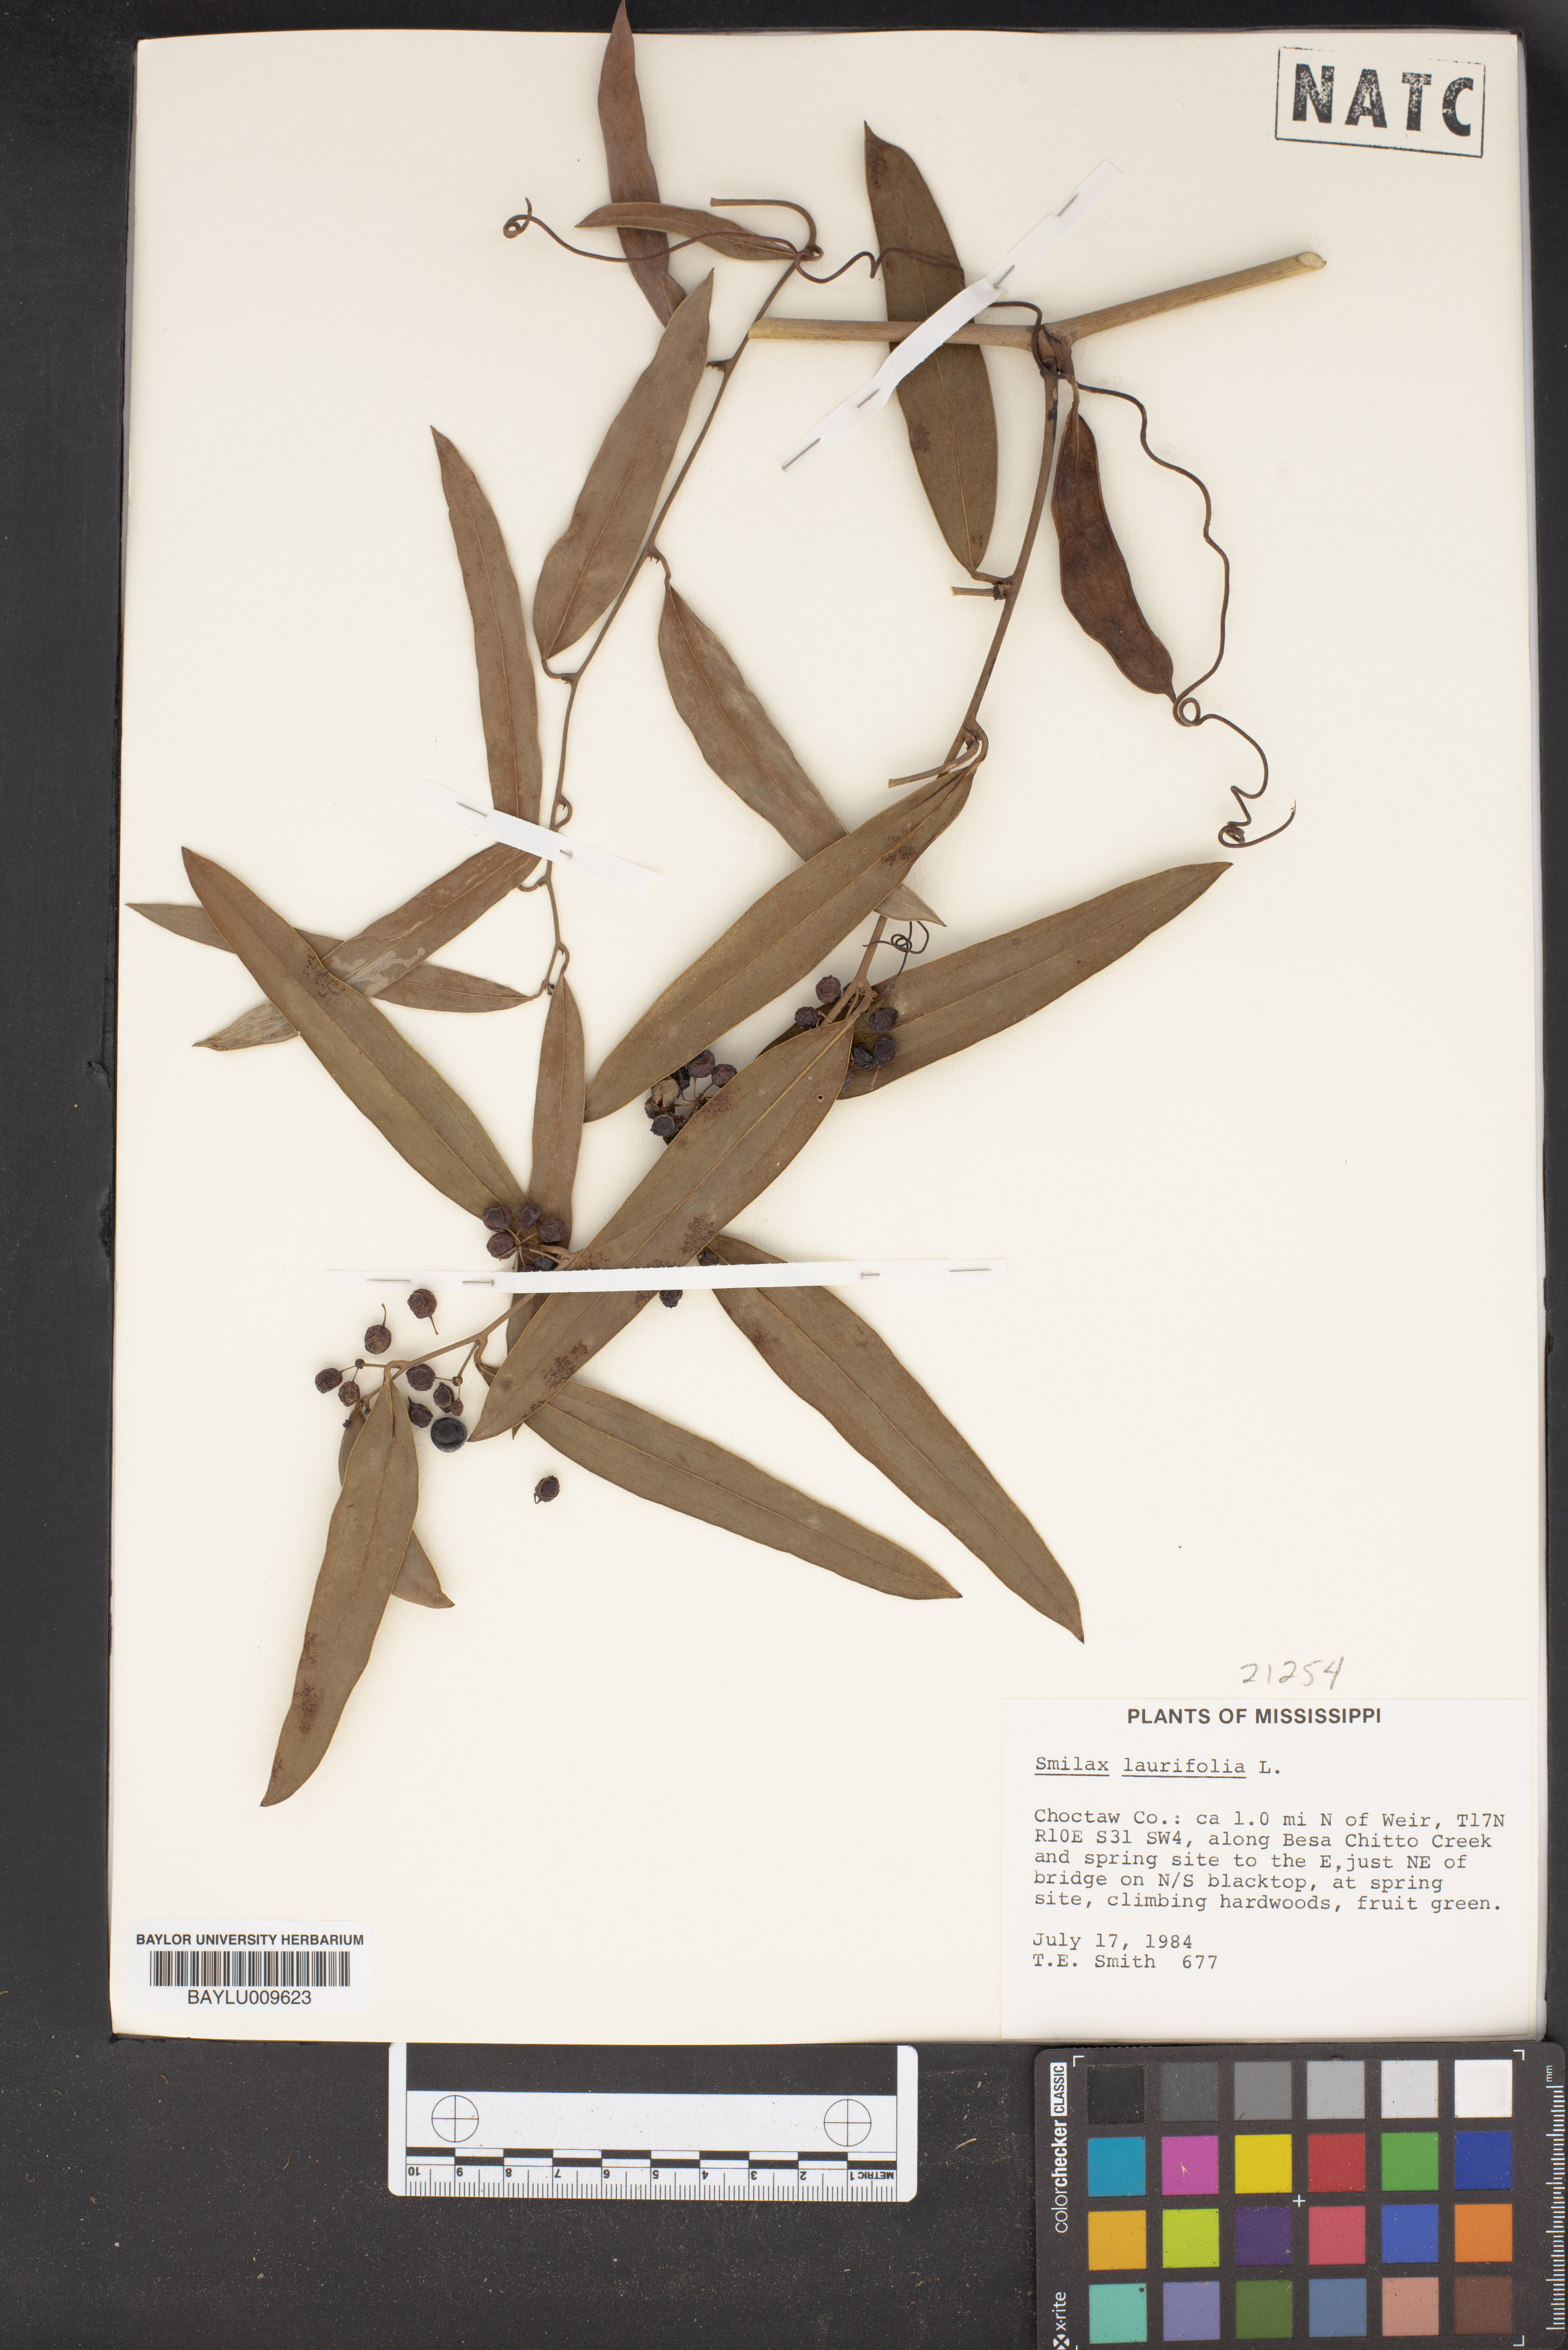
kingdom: Plantae
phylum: Tracheophyta
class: Liliopsida
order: Liliales
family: Smilacaceae
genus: Smilax
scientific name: Smilax laurifolia
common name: Bamboovine
